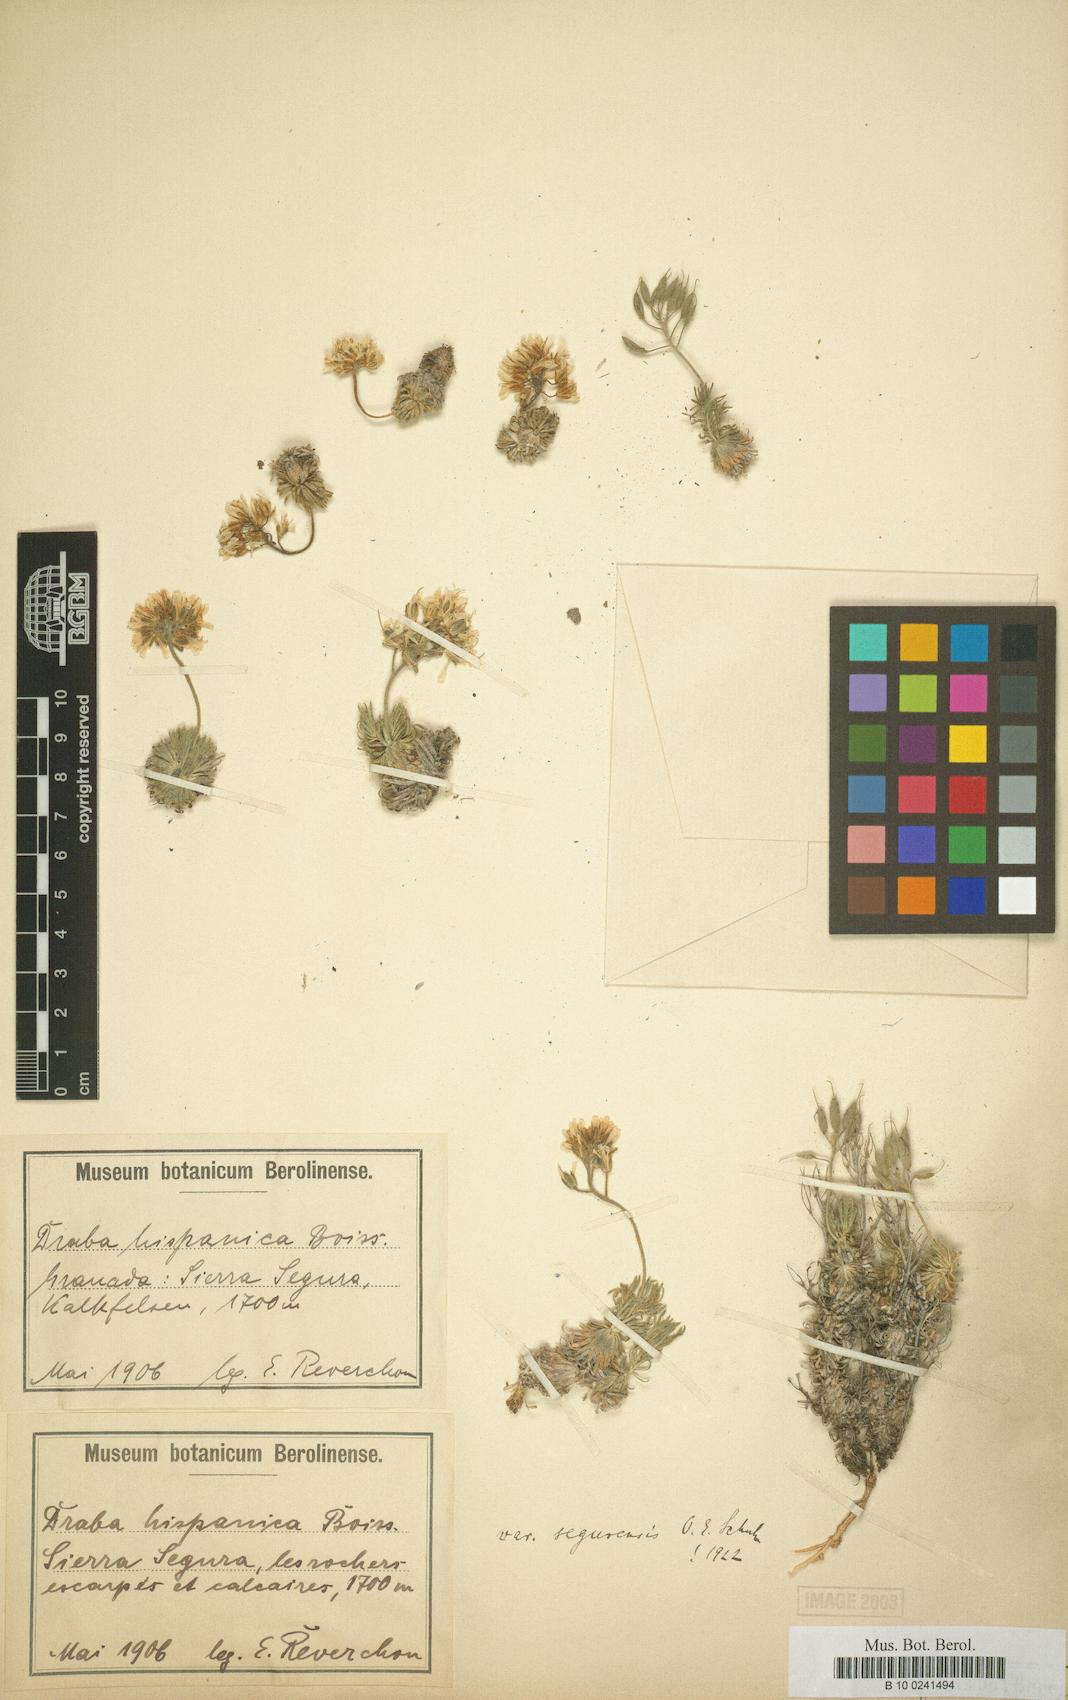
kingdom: Plantae
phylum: Tracheophyta
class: Magnoliopsida
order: Brassicales
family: Brassicaceae
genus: Draba
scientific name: Draba hispanica
